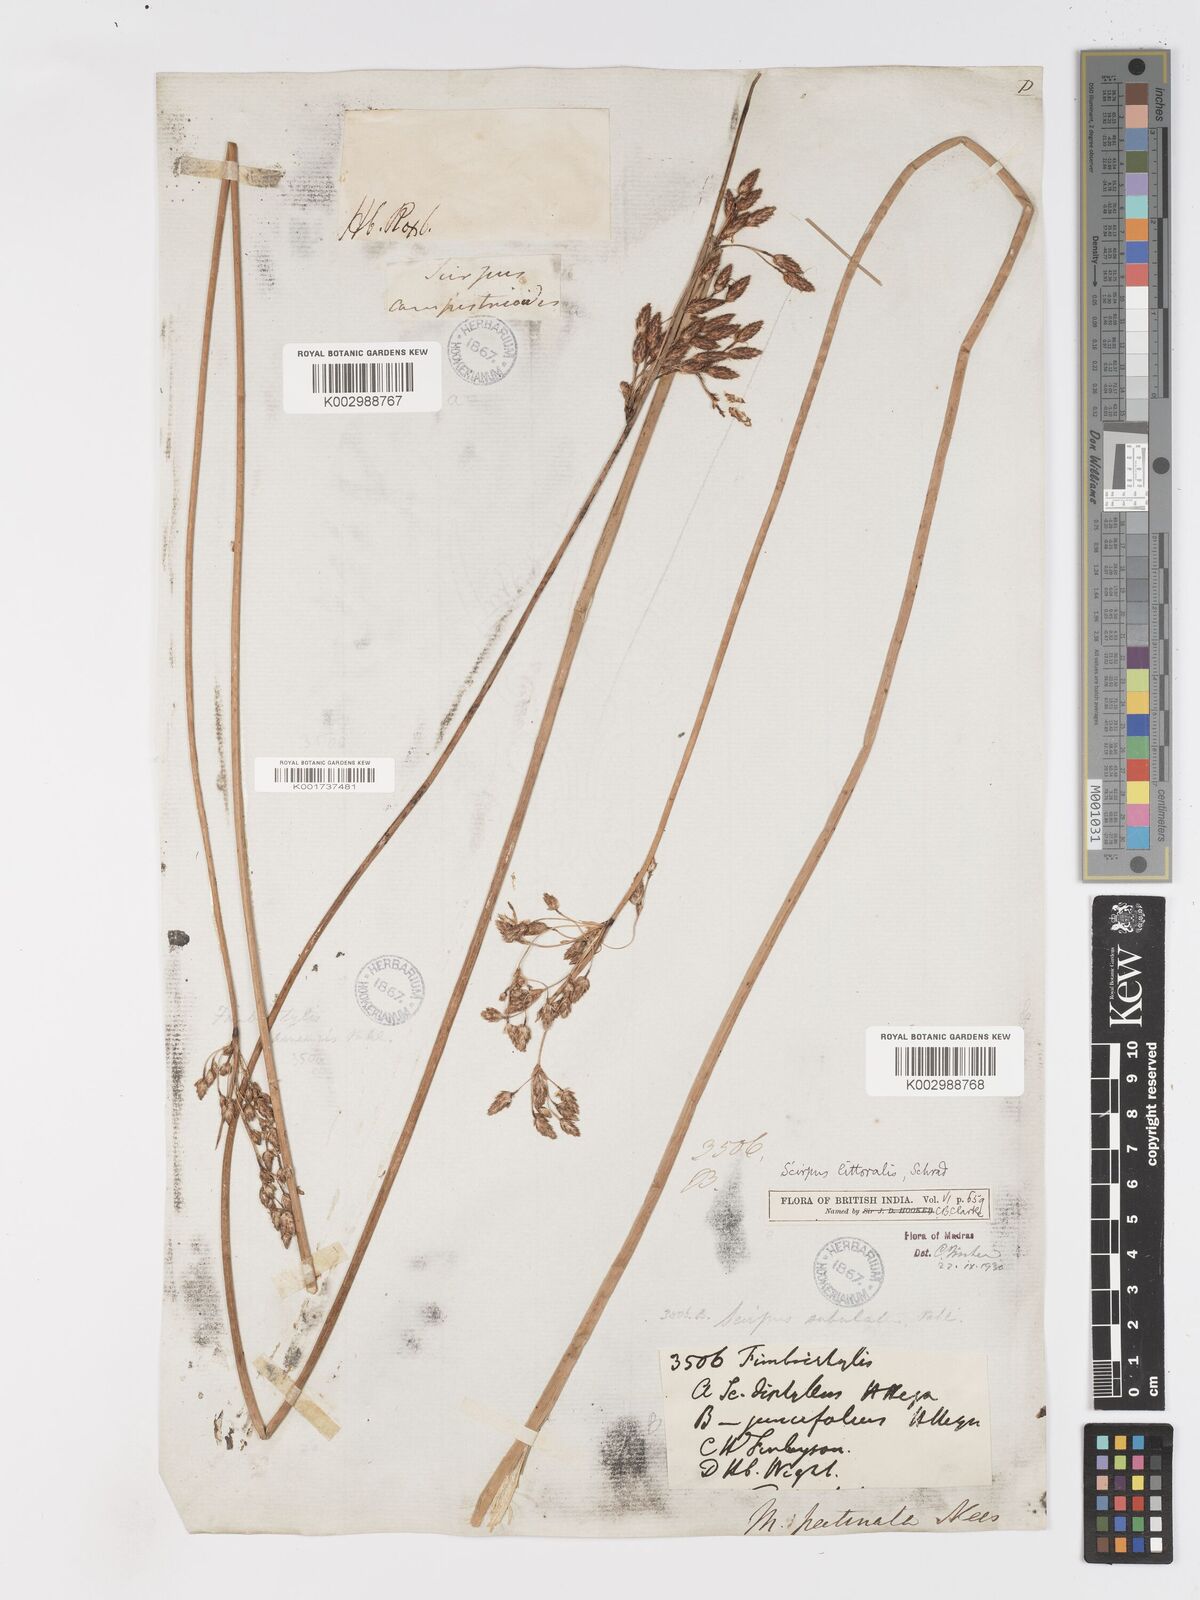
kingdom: Plantae
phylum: Tracheophyta
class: Liliopsida
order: Poales
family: Cyperaceae
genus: Schoenoplectus
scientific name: Schoenoplectus litoralis
